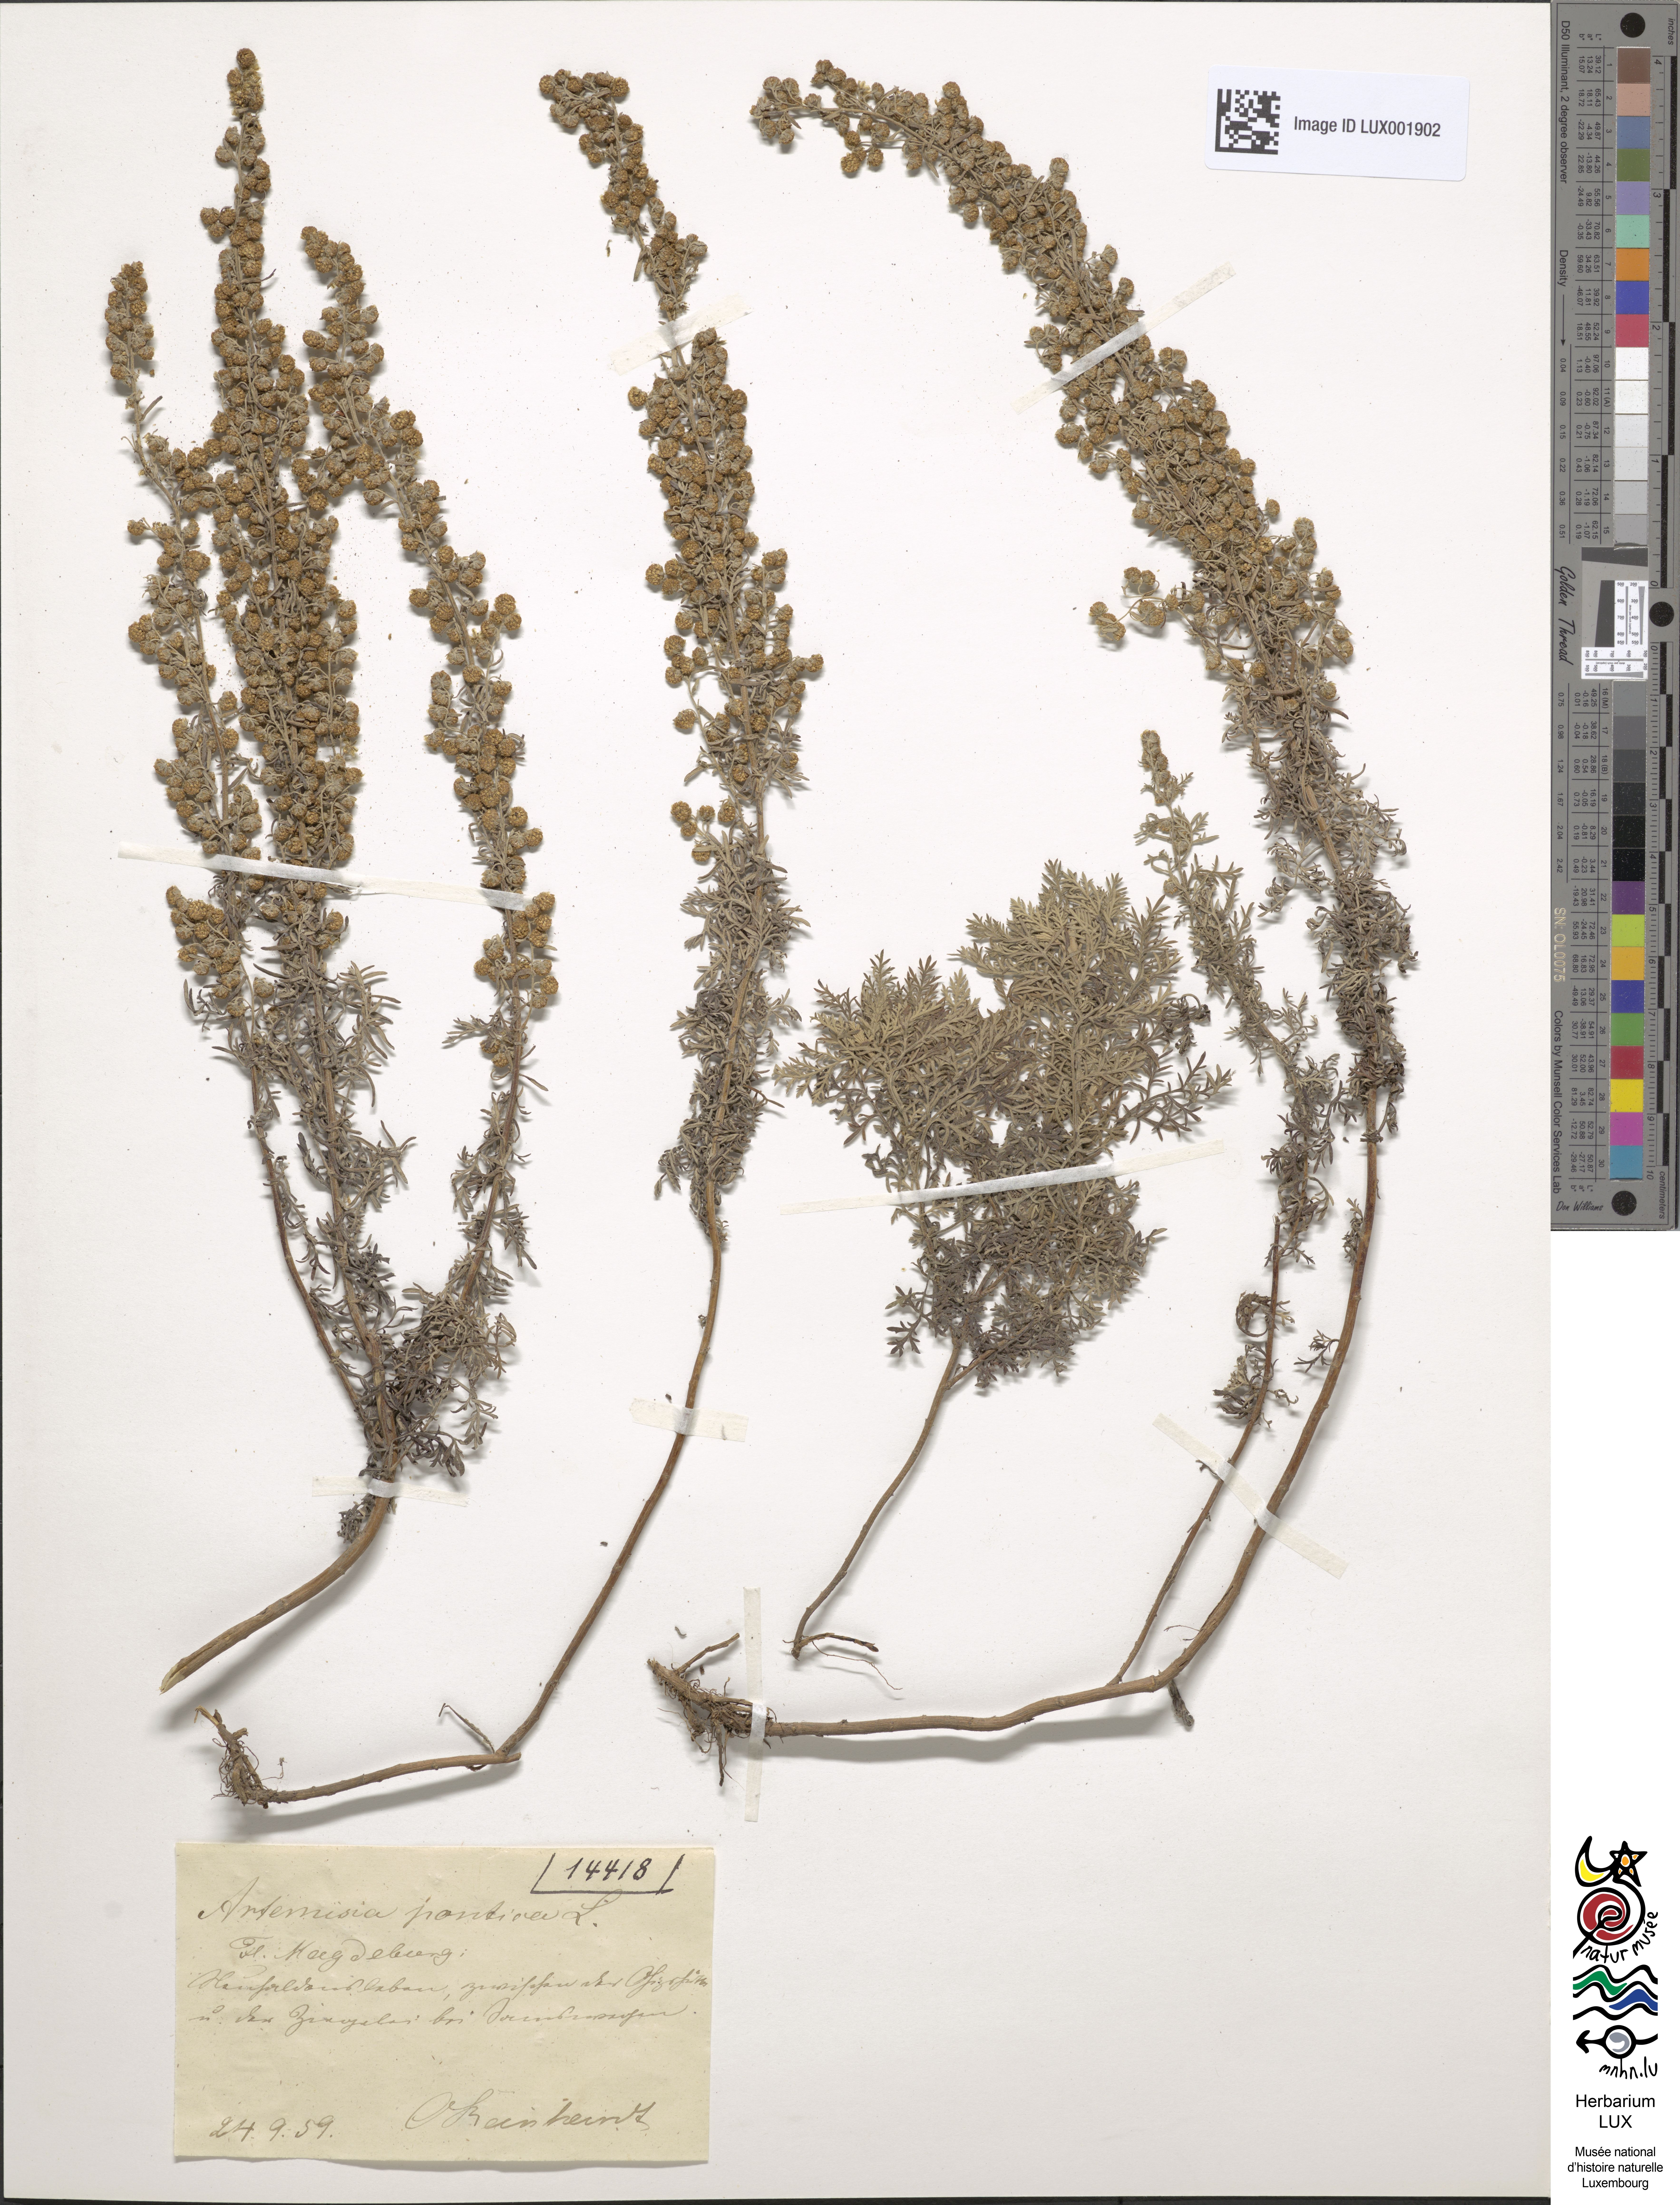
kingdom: Plantae
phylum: Tracheophyta
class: Magnoliopsida
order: Asterales
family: Asteraceae
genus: Artemisia
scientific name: Artemisia pontica
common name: Roman wormwood
